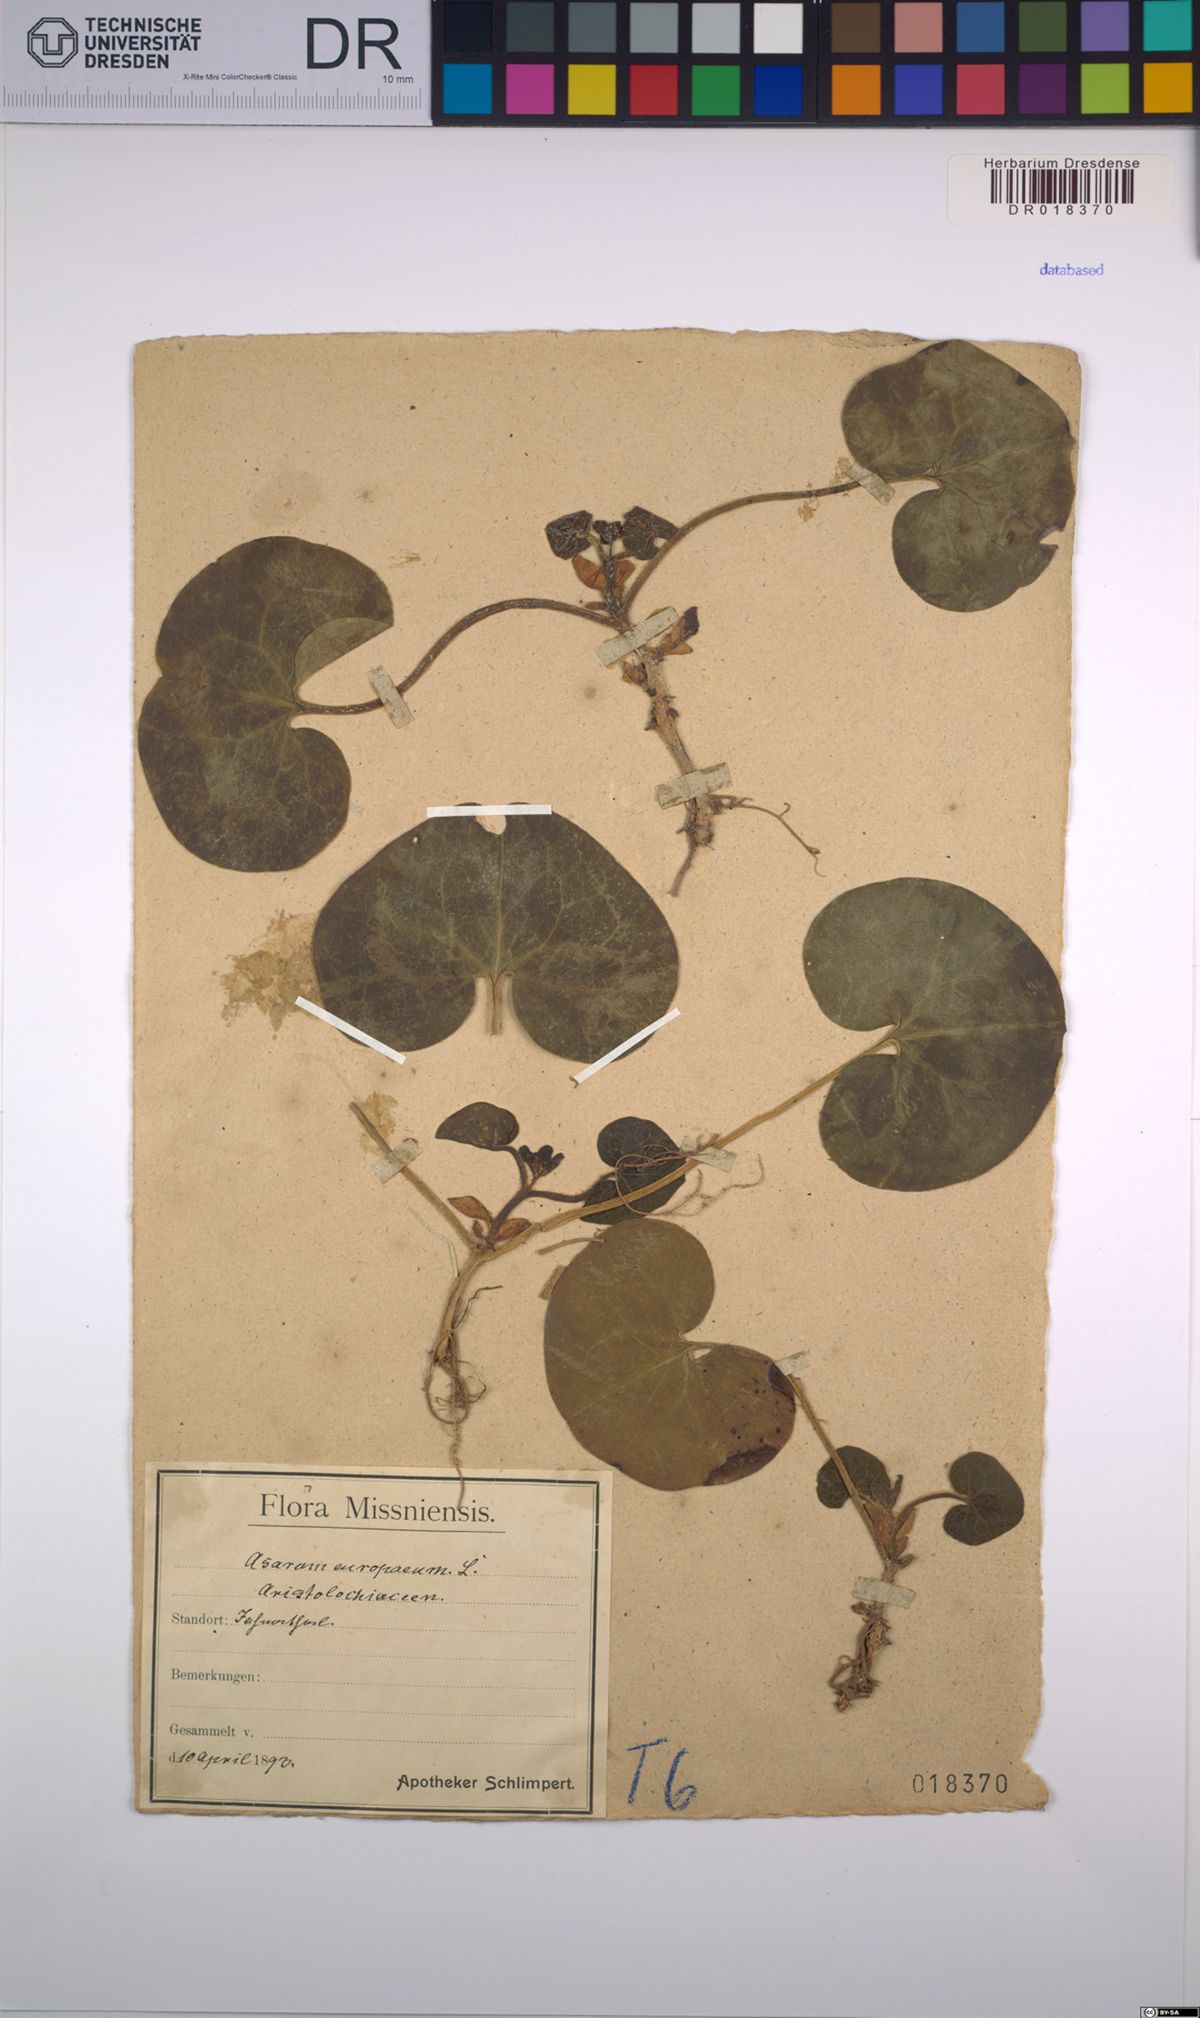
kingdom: Plantae
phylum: Tracheophyta
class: Magnoliopsida
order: Piperales
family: Aristolochiaceae
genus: Asarum
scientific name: Asarum europaeum
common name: Asarabacca
